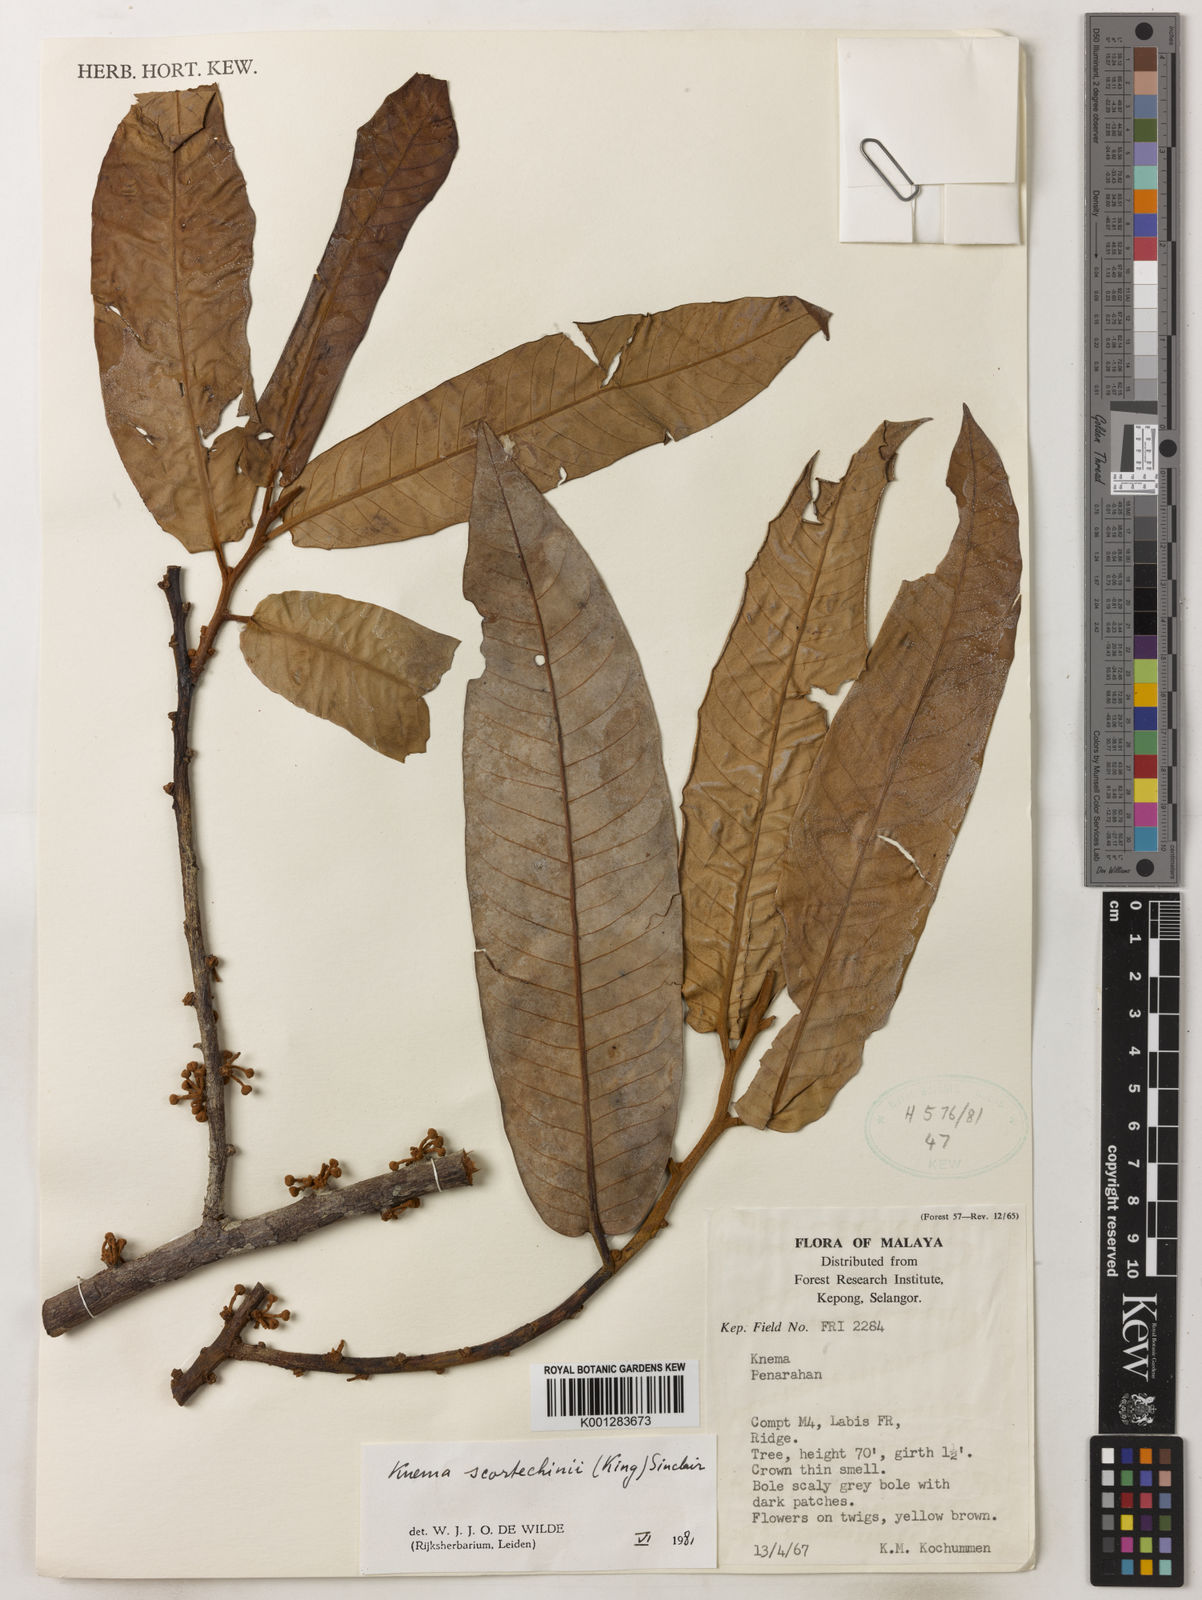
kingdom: Plantae
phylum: Tracheophyta
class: Magnoliopsida
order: Magnoliales
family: Myristicaceae
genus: Knema
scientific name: Knema scortechinii
